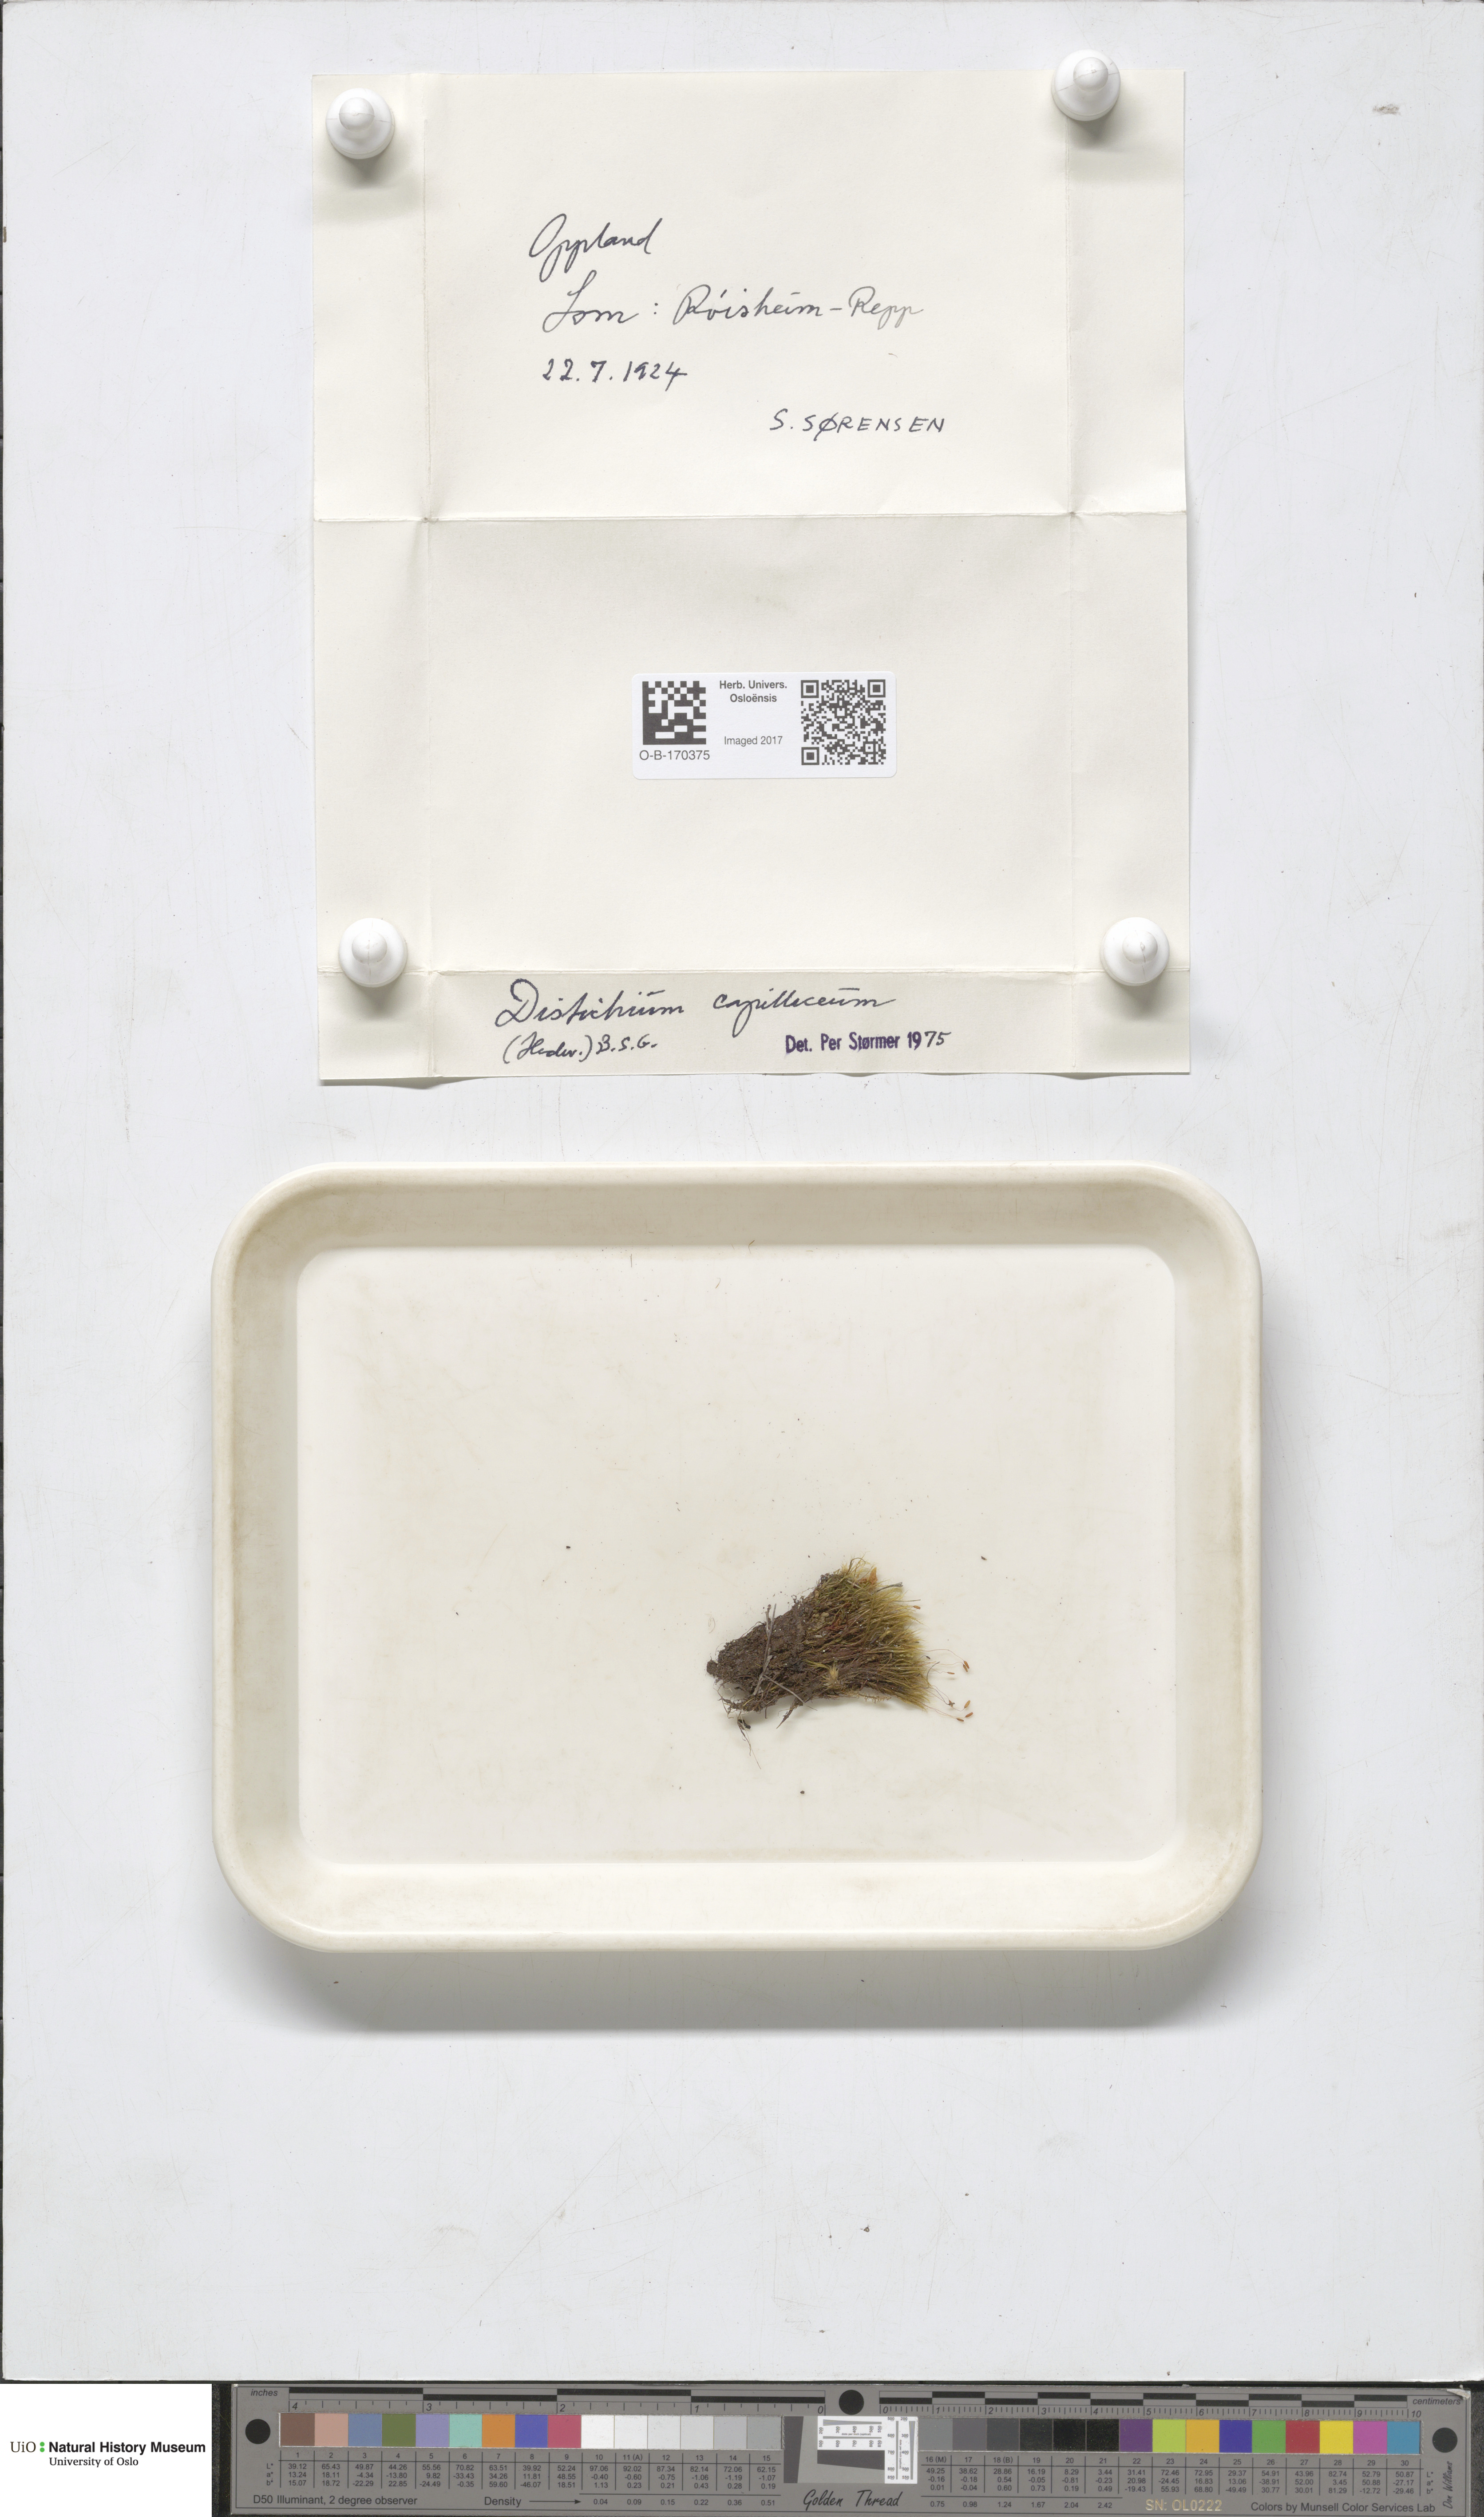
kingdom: Plantae
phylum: Bryophyta
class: Bryopsida
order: Scouleriales
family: Distichiaceae
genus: Distichium
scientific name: Distichium capillaceum
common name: Erect-fruited iris moss
